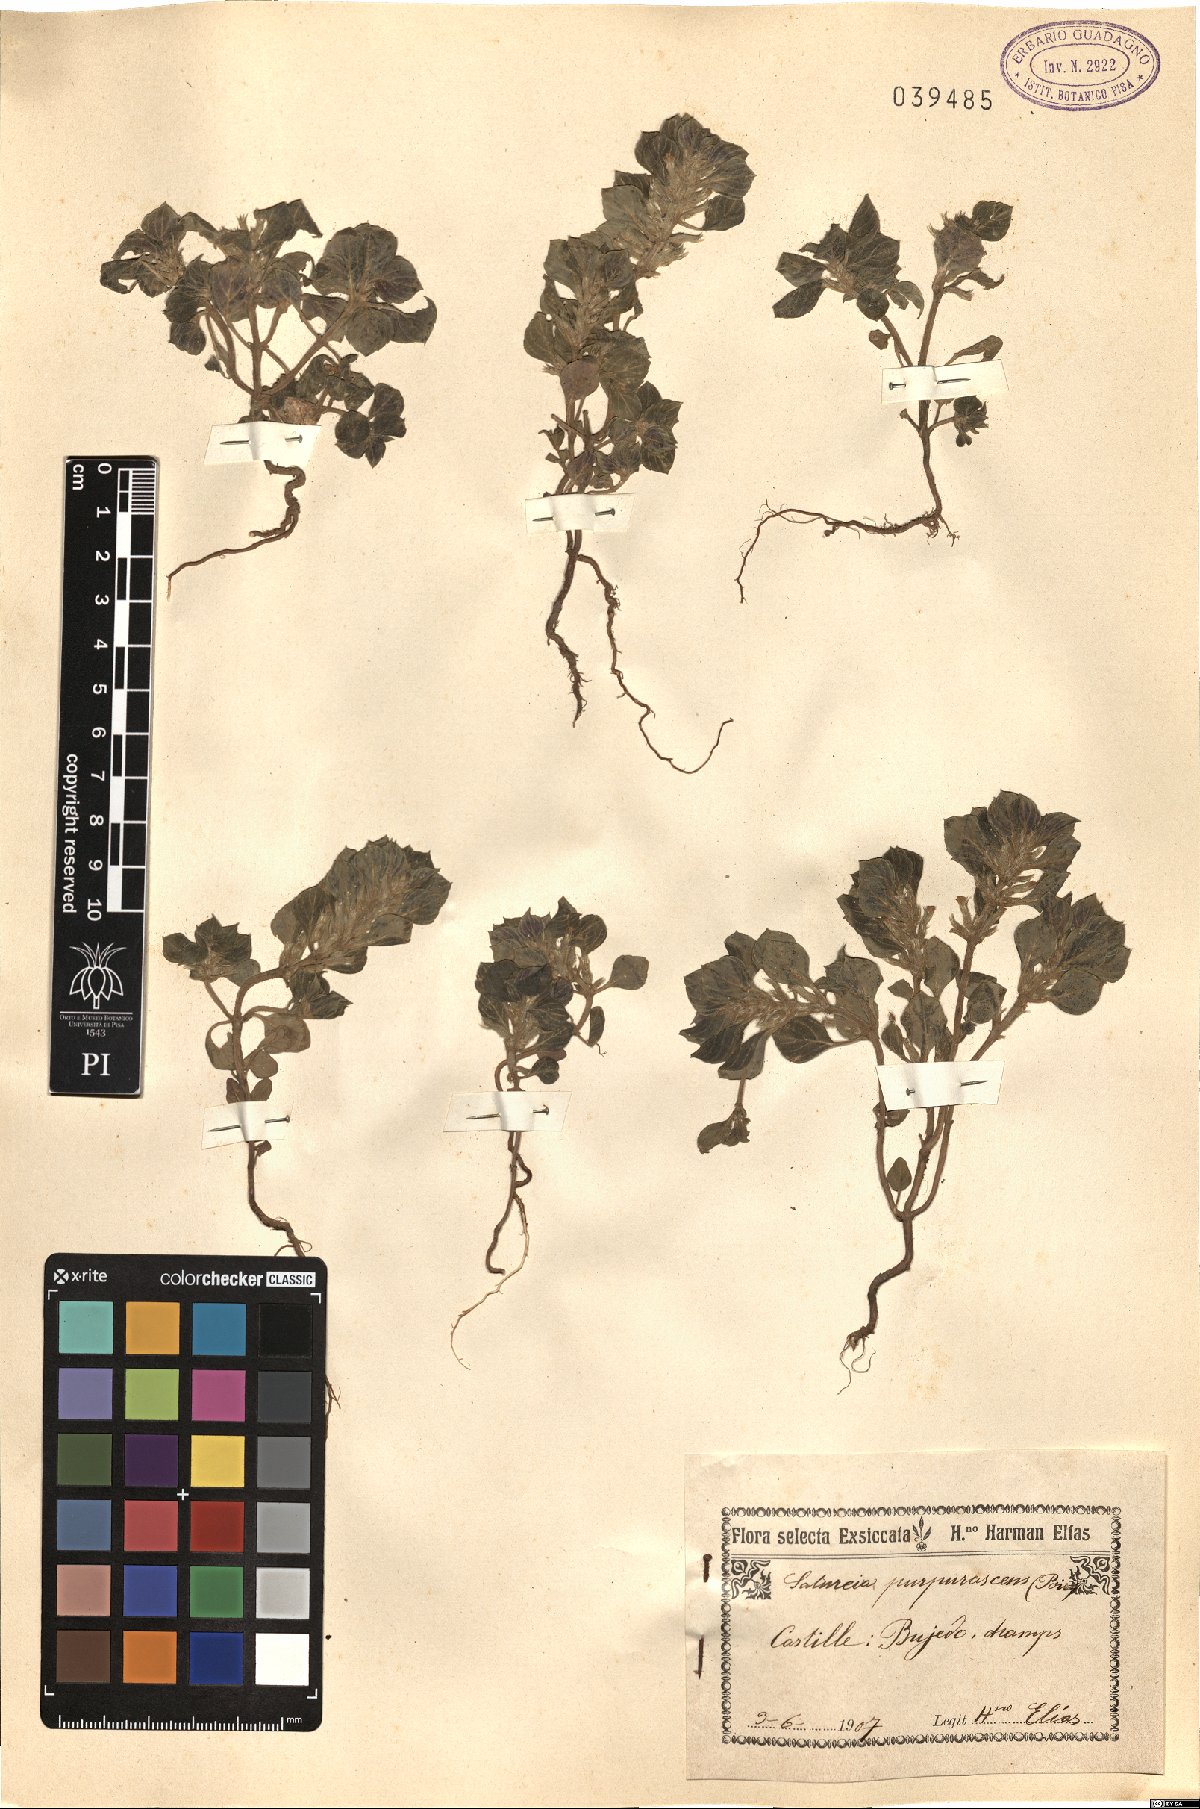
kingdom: Plantae
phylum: Tracheophyta
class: Magnoliopsida
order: Lamiales
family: Lamiaceae
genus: Satureja
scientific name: Satureja
